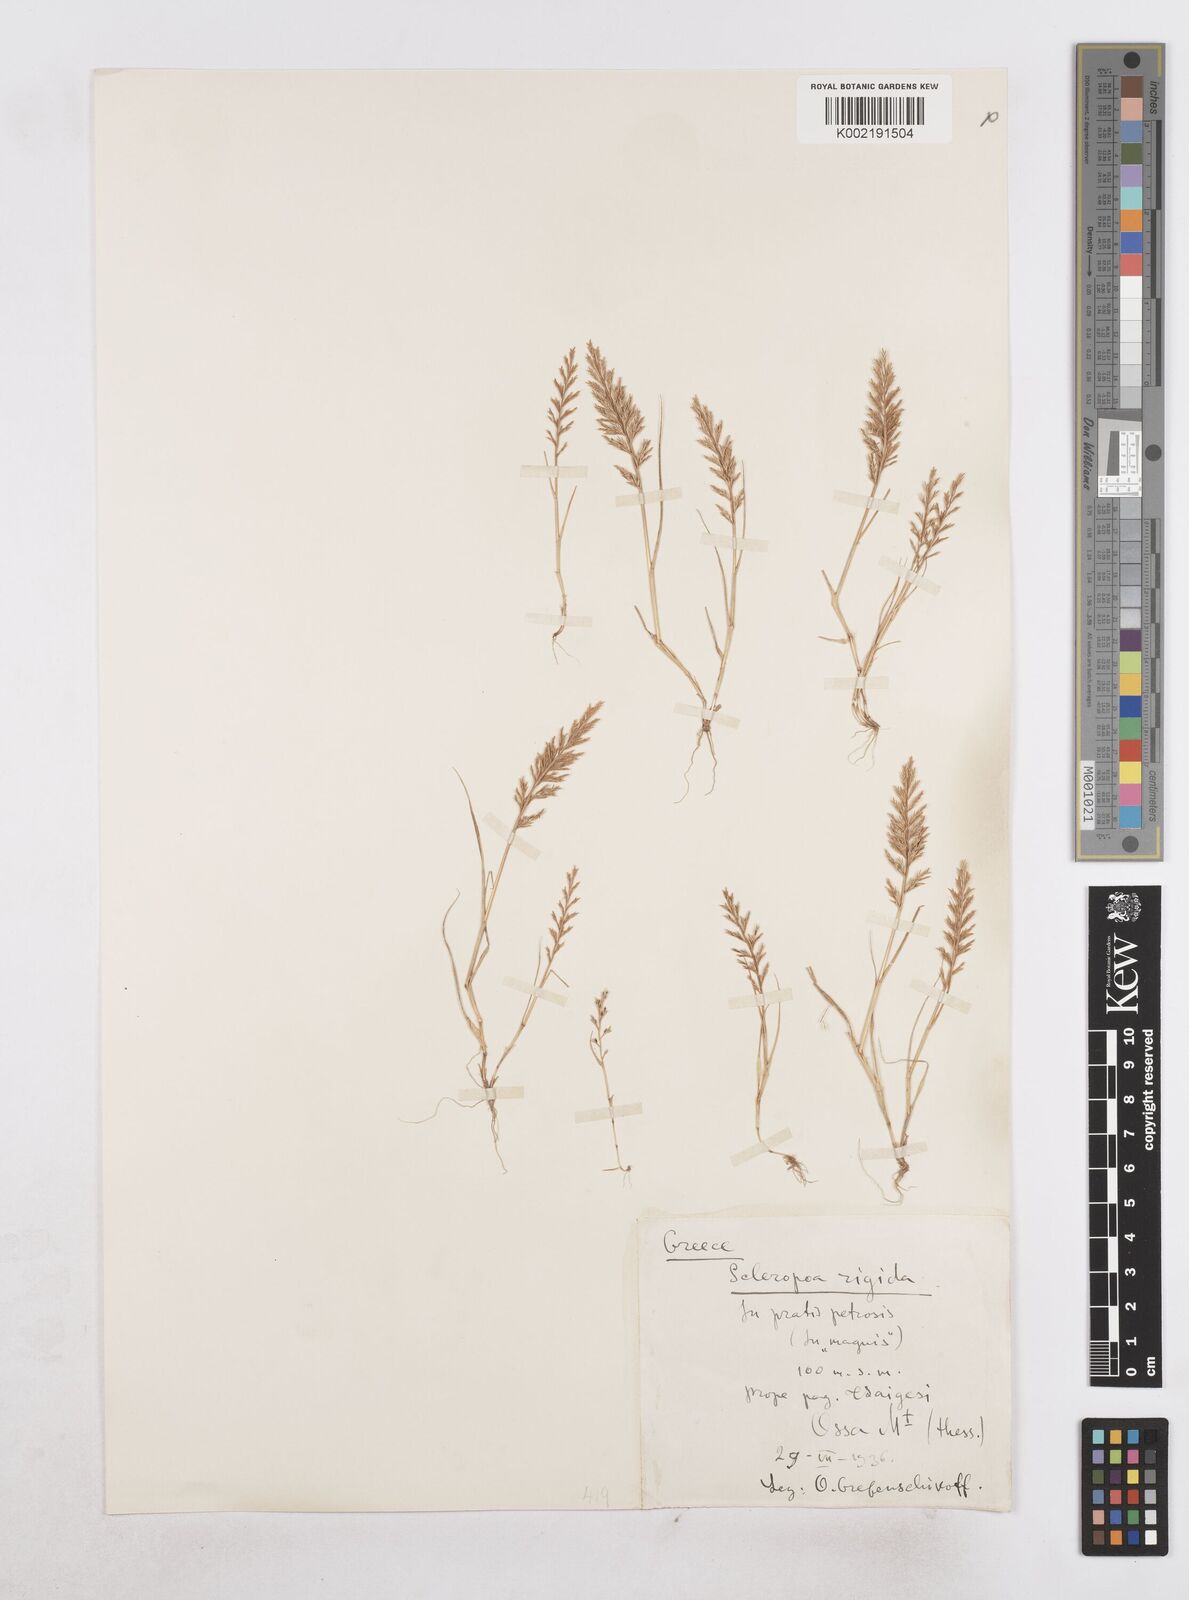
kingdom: Plantae
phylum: Tracheophyta
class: Liliopsida
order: Poales
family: Poaceae
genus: Catapodium
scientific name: Catapodium rigidum
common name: Fern-grass
